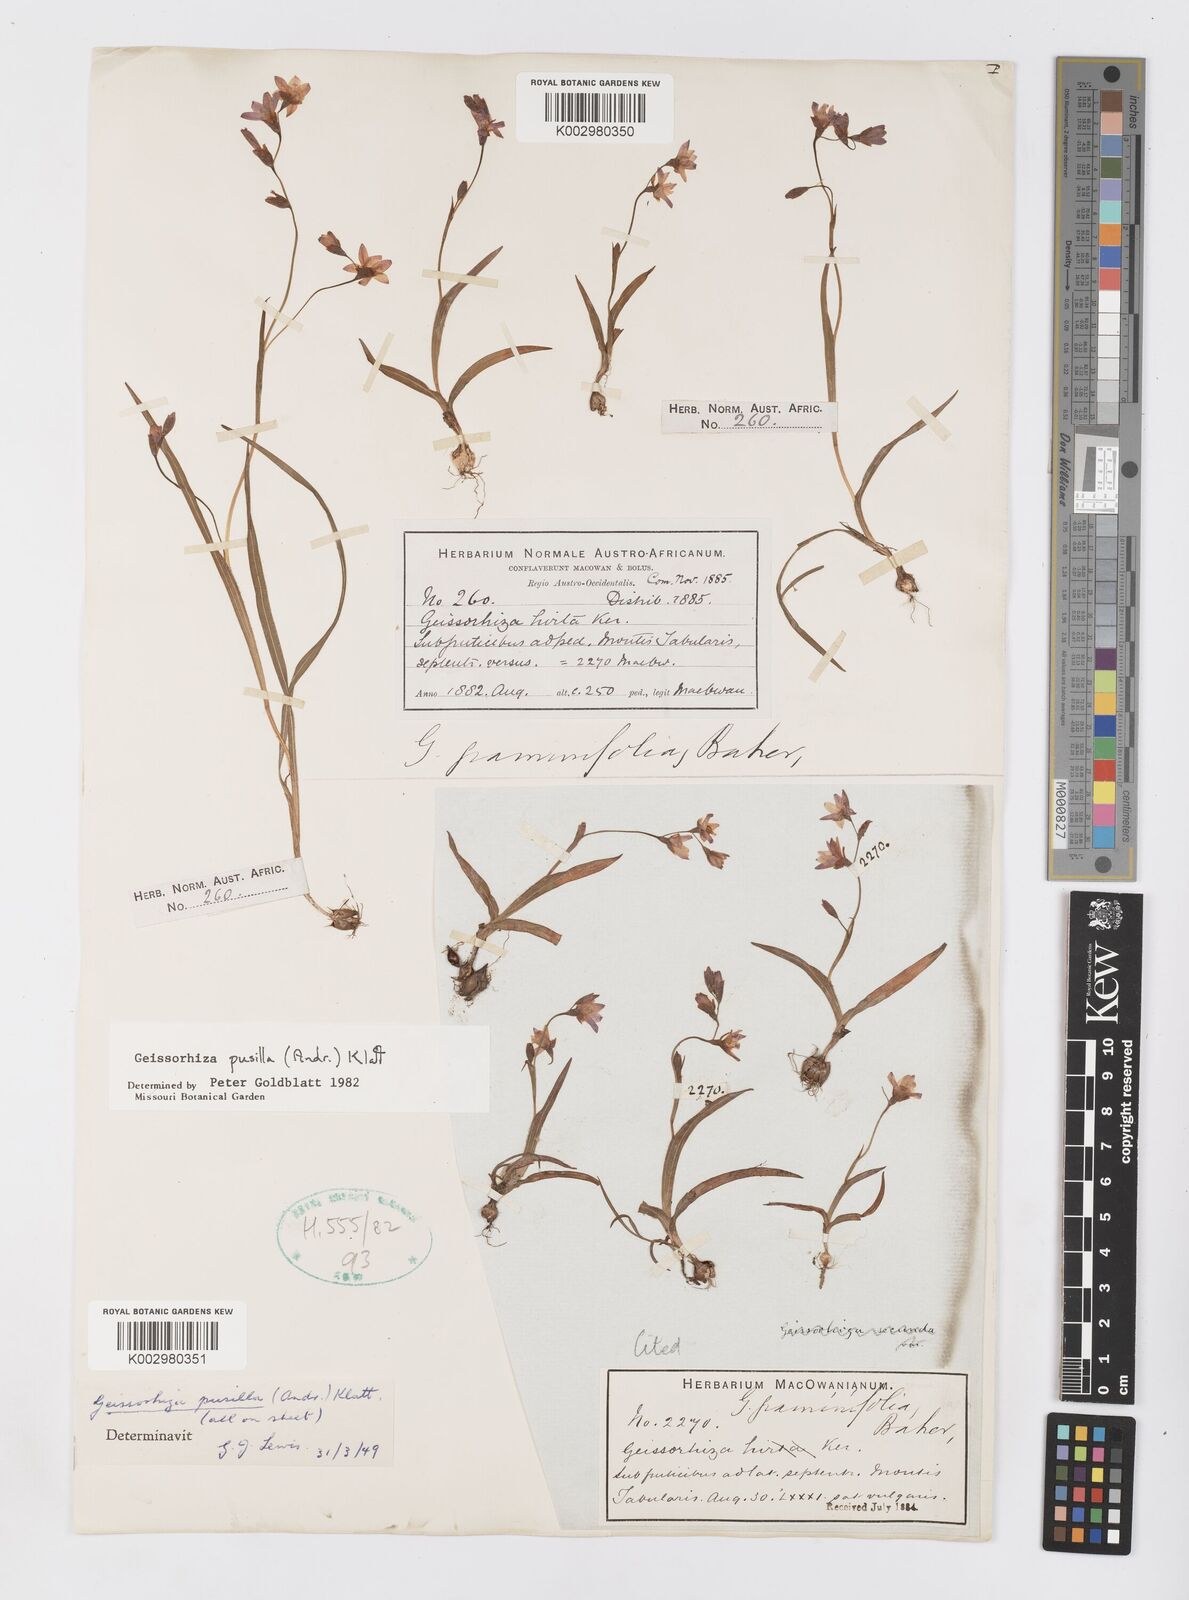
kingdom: Plantae
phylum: Tracheophyta
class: Liliopsida
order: Asparagales
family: Iridaceae
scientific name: Iridaceae
